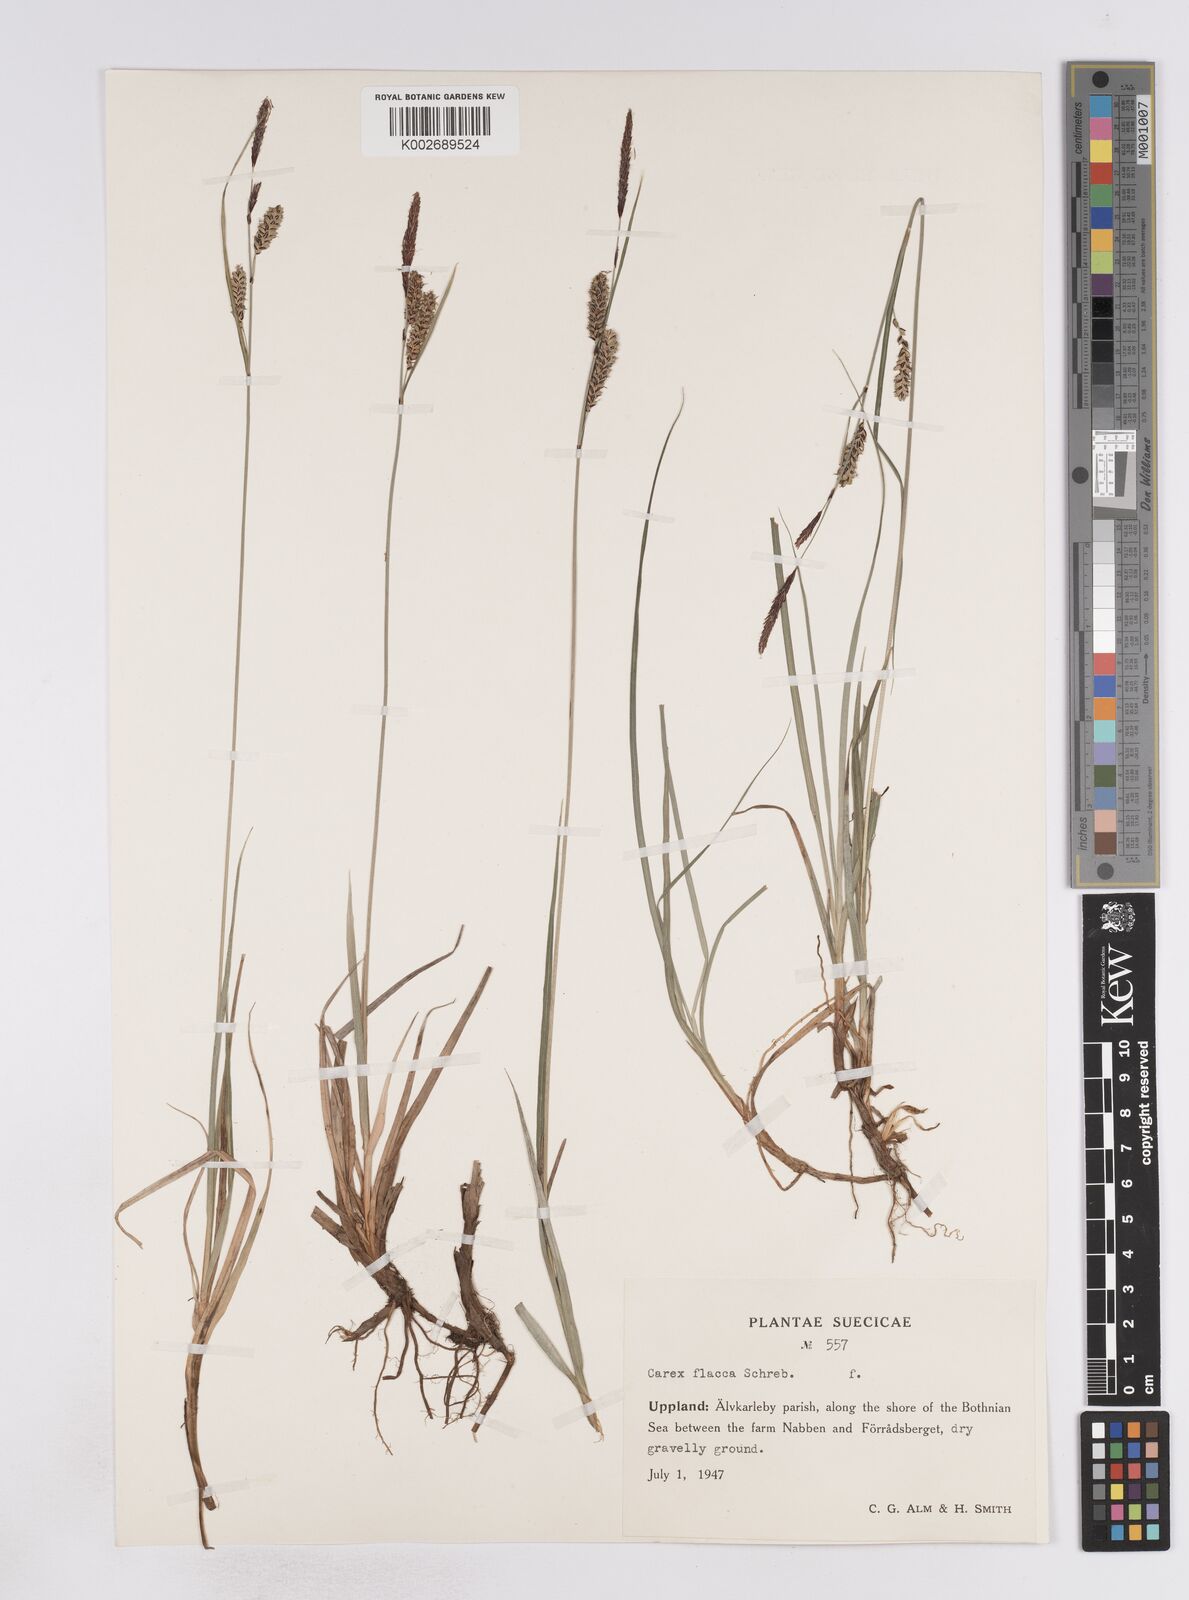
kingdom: Plantae
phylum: Tracheophyta
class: Liliopsida
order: Poales
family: Cyperaceae
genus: Carex
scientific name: Carex flacca
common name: Glaucous sedge
